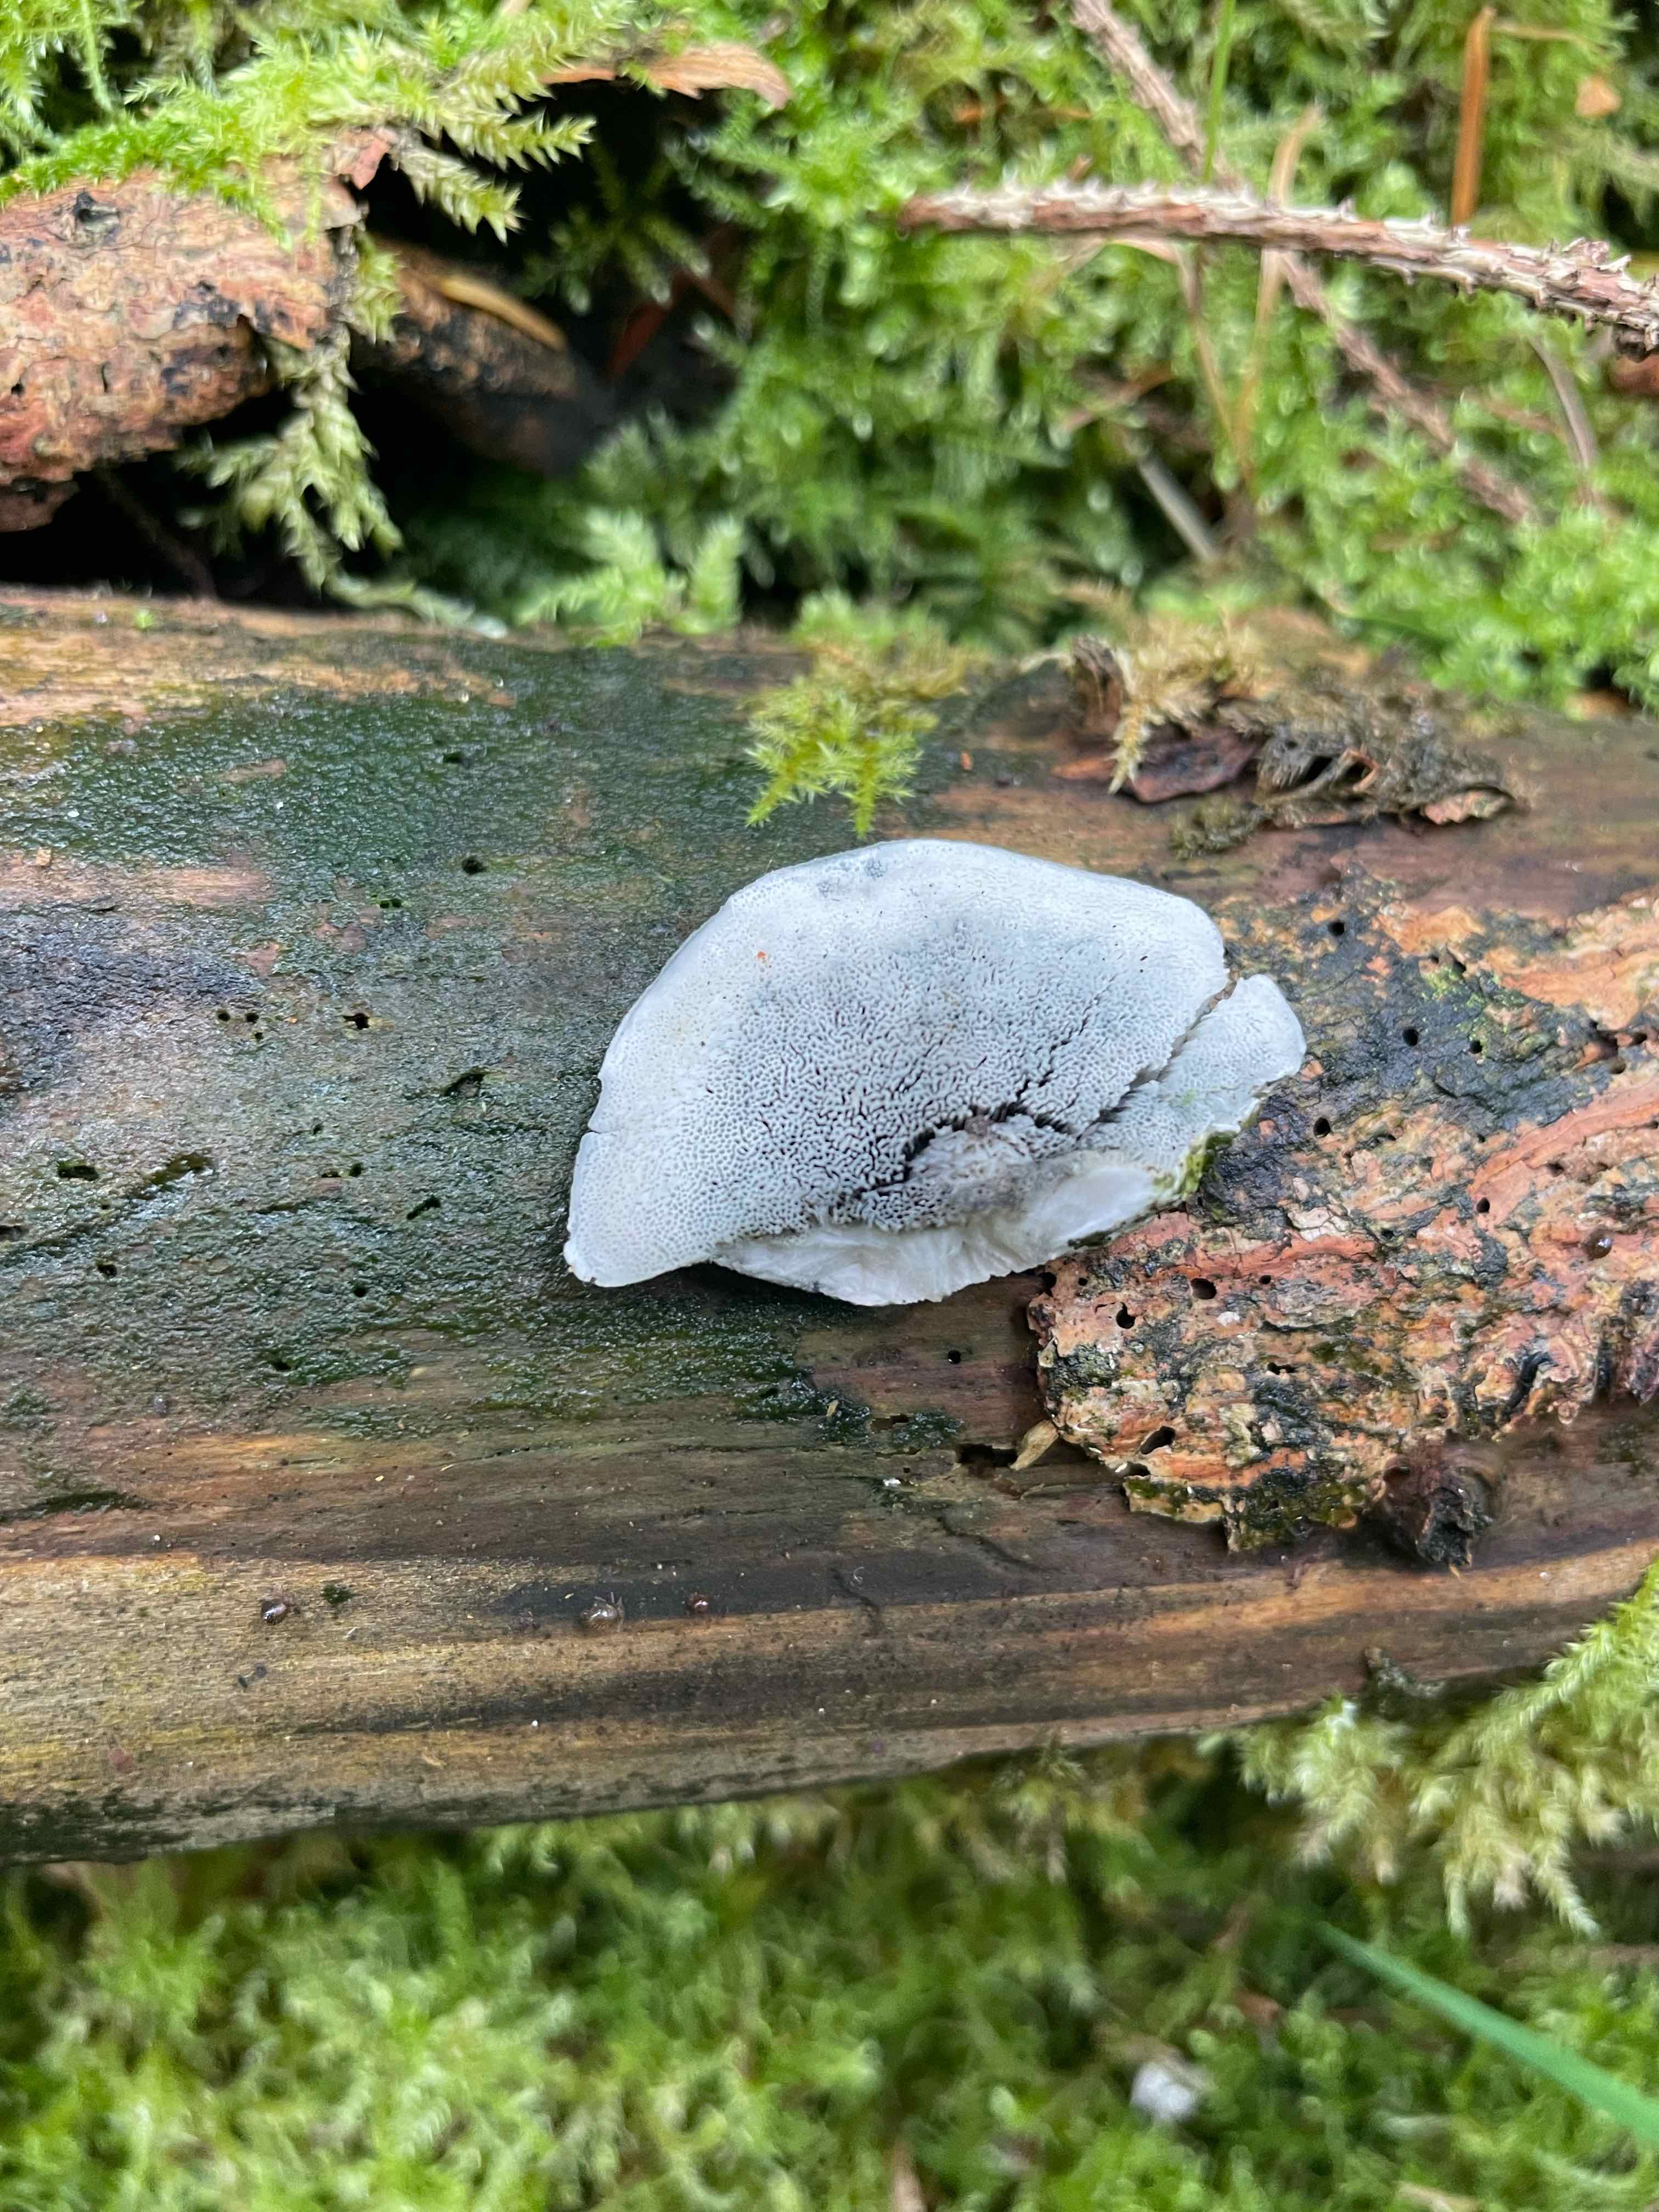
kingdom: Fungi
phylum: Basidiomycota
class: Agaricomycetes
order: Polyporales
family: Polyporaceae
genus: Cyanosporus
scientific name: Cyanosporus caesius
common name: blålig kødporesvamp
